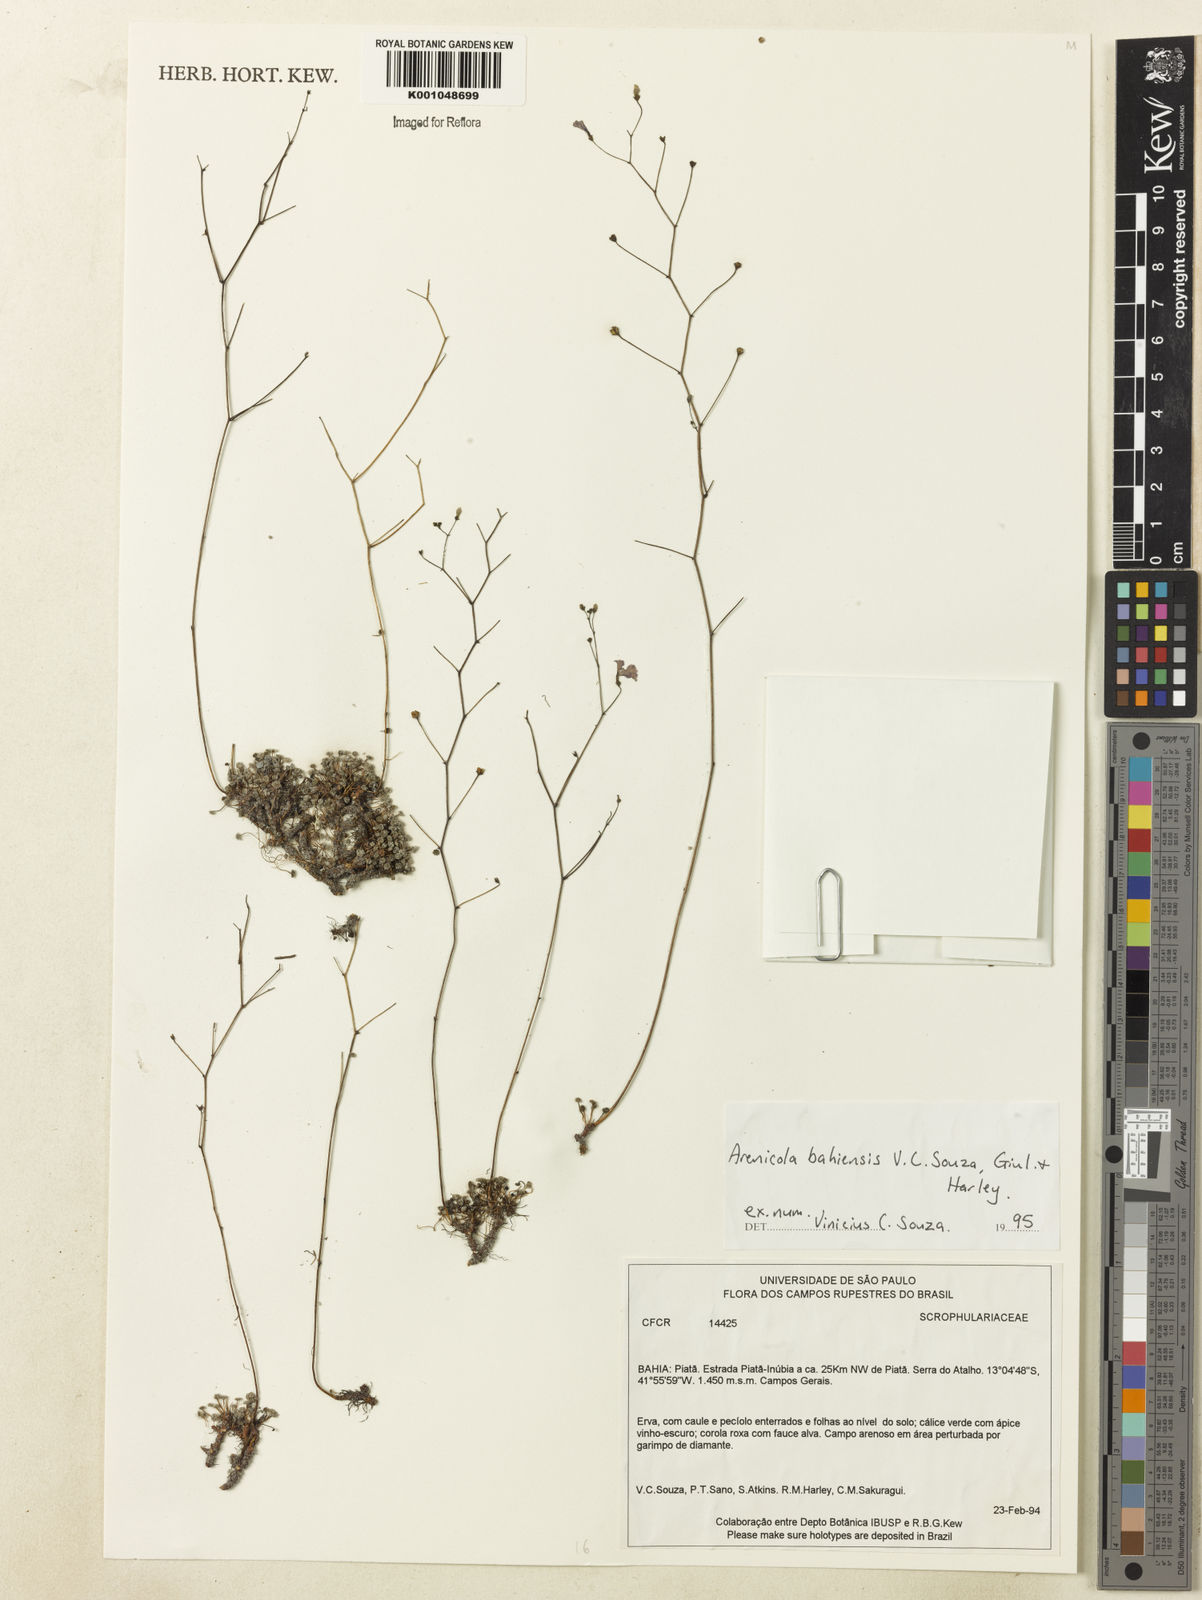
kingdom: Plantae
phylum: Tracheophyta
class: Magnoliopsida
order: Lamiales
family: Plantaginaceae
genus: Philcoxia
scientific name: Philcoxia bahiensis
